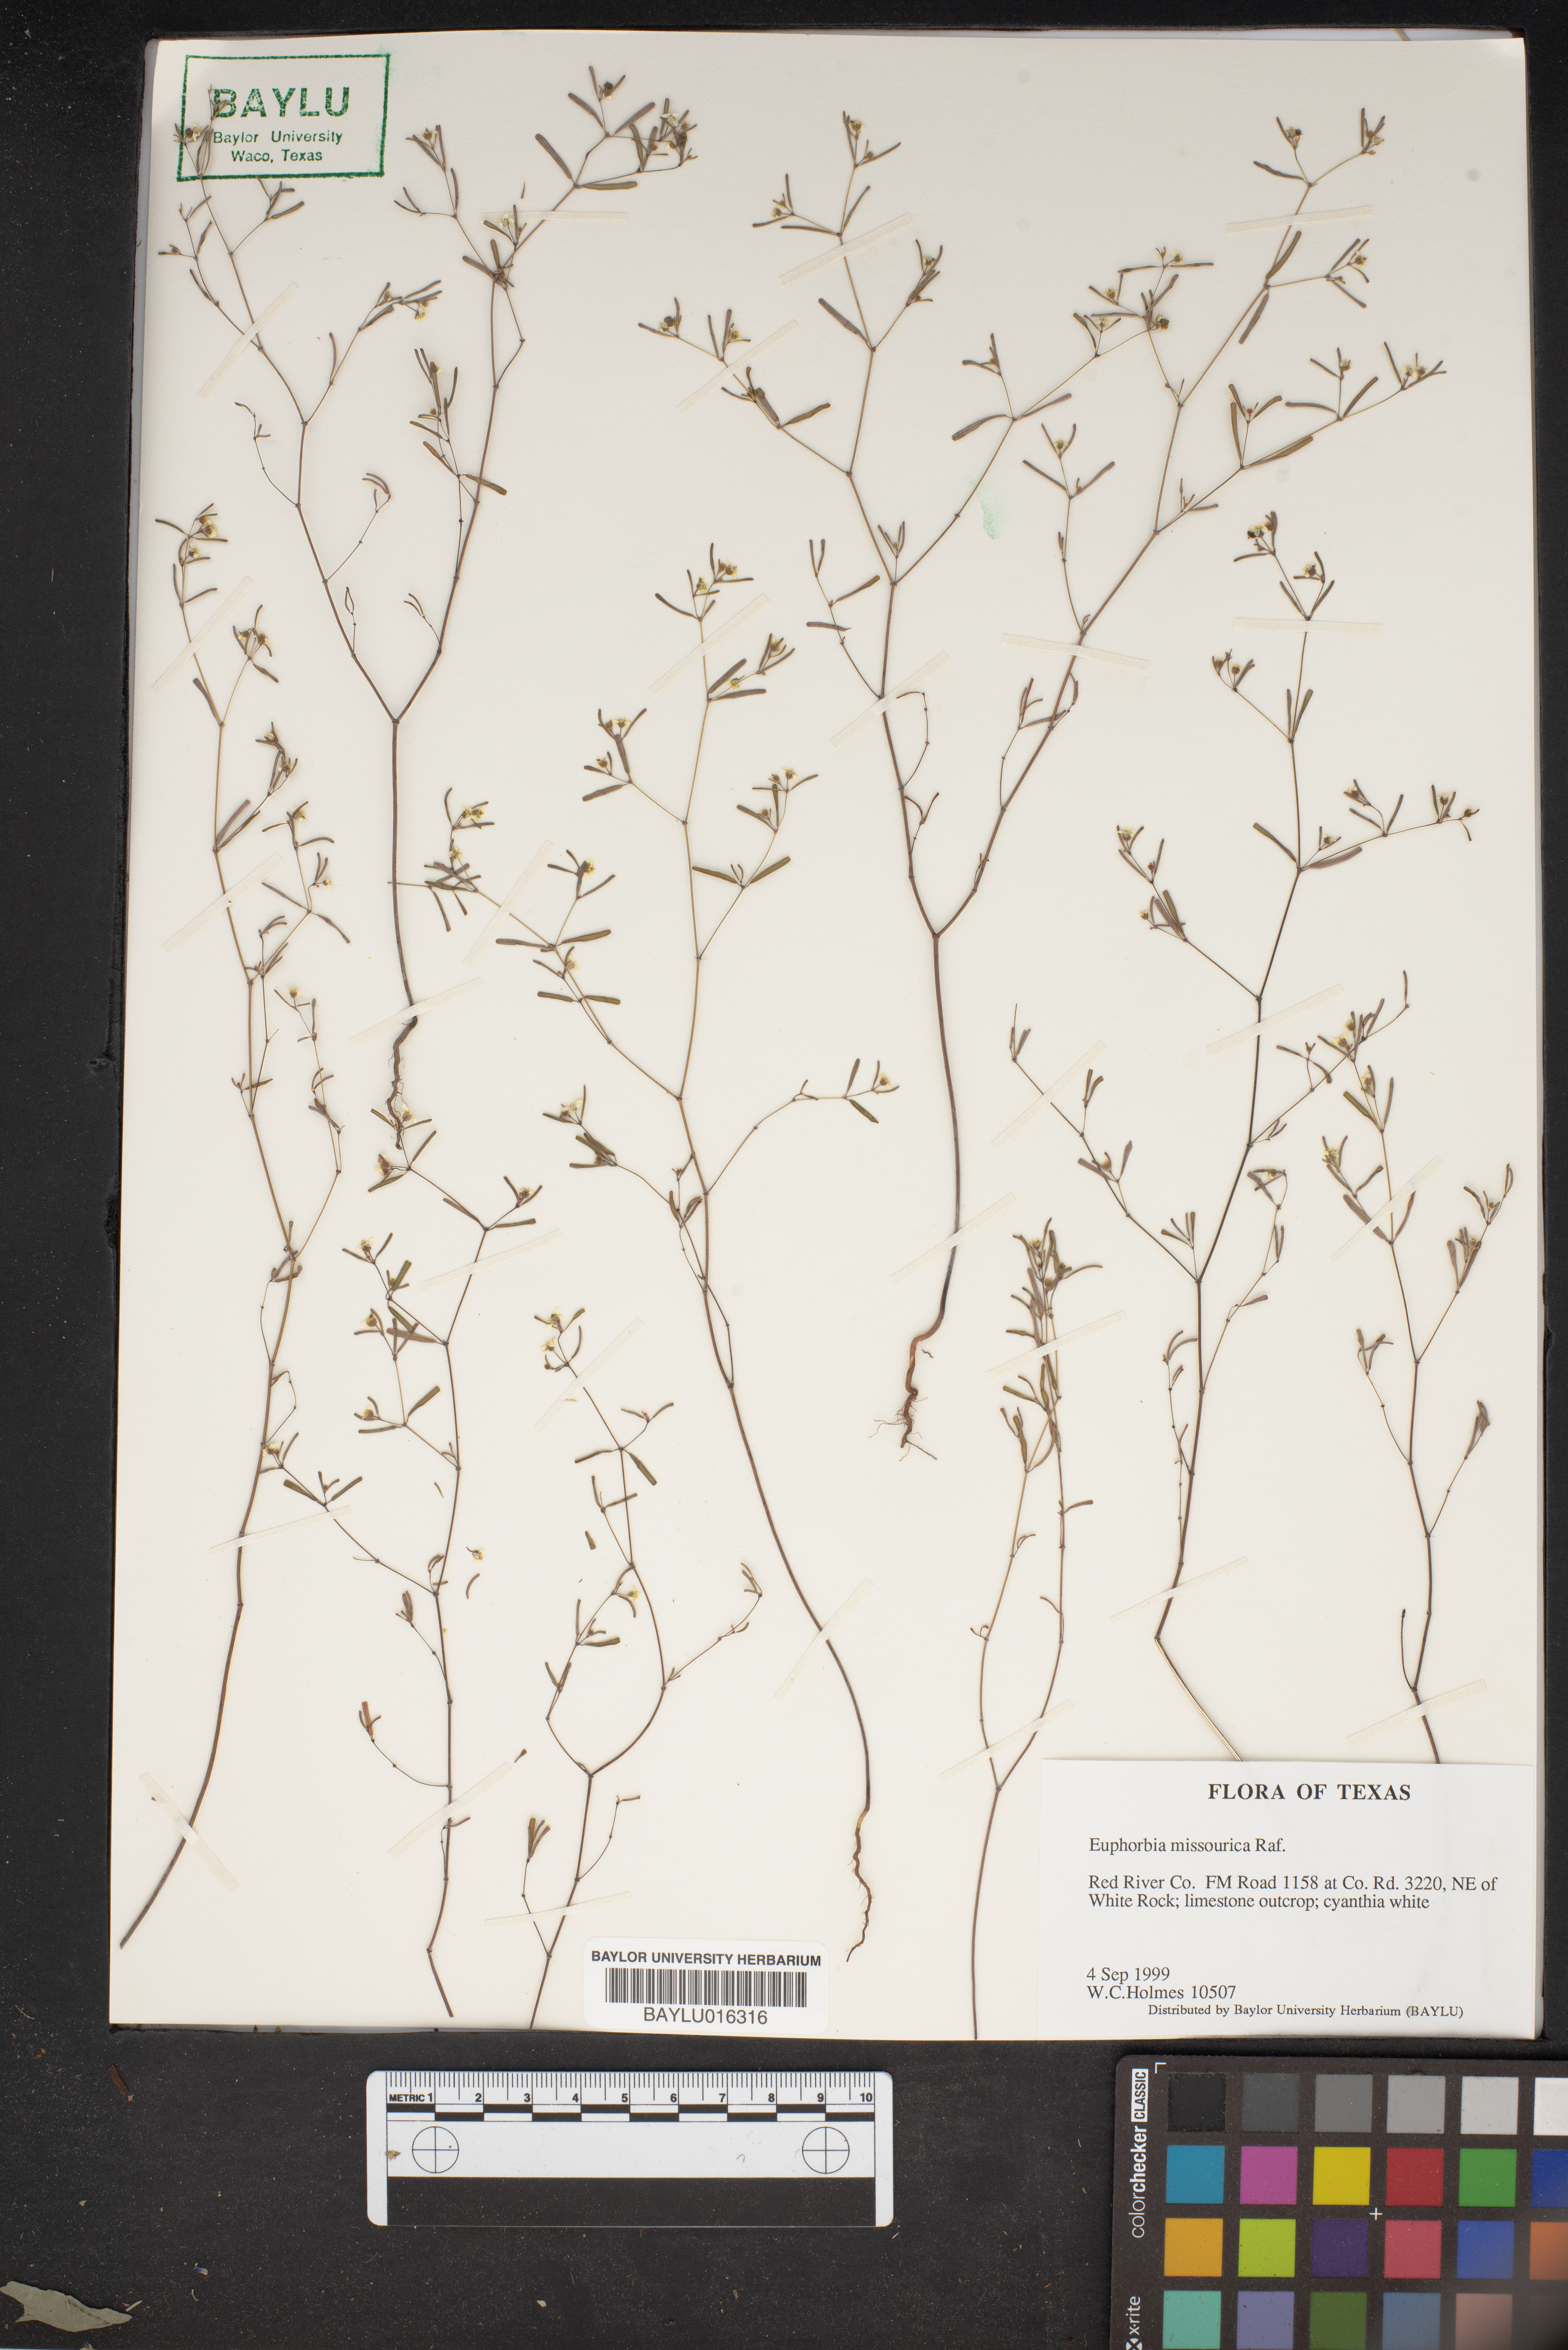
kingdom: Plantae
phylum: Tracheophyta
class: Magnoliopsida
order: Malpighiales
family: Euphorbiaceae
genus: Euphorbia
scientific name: Euphorbia missurica
